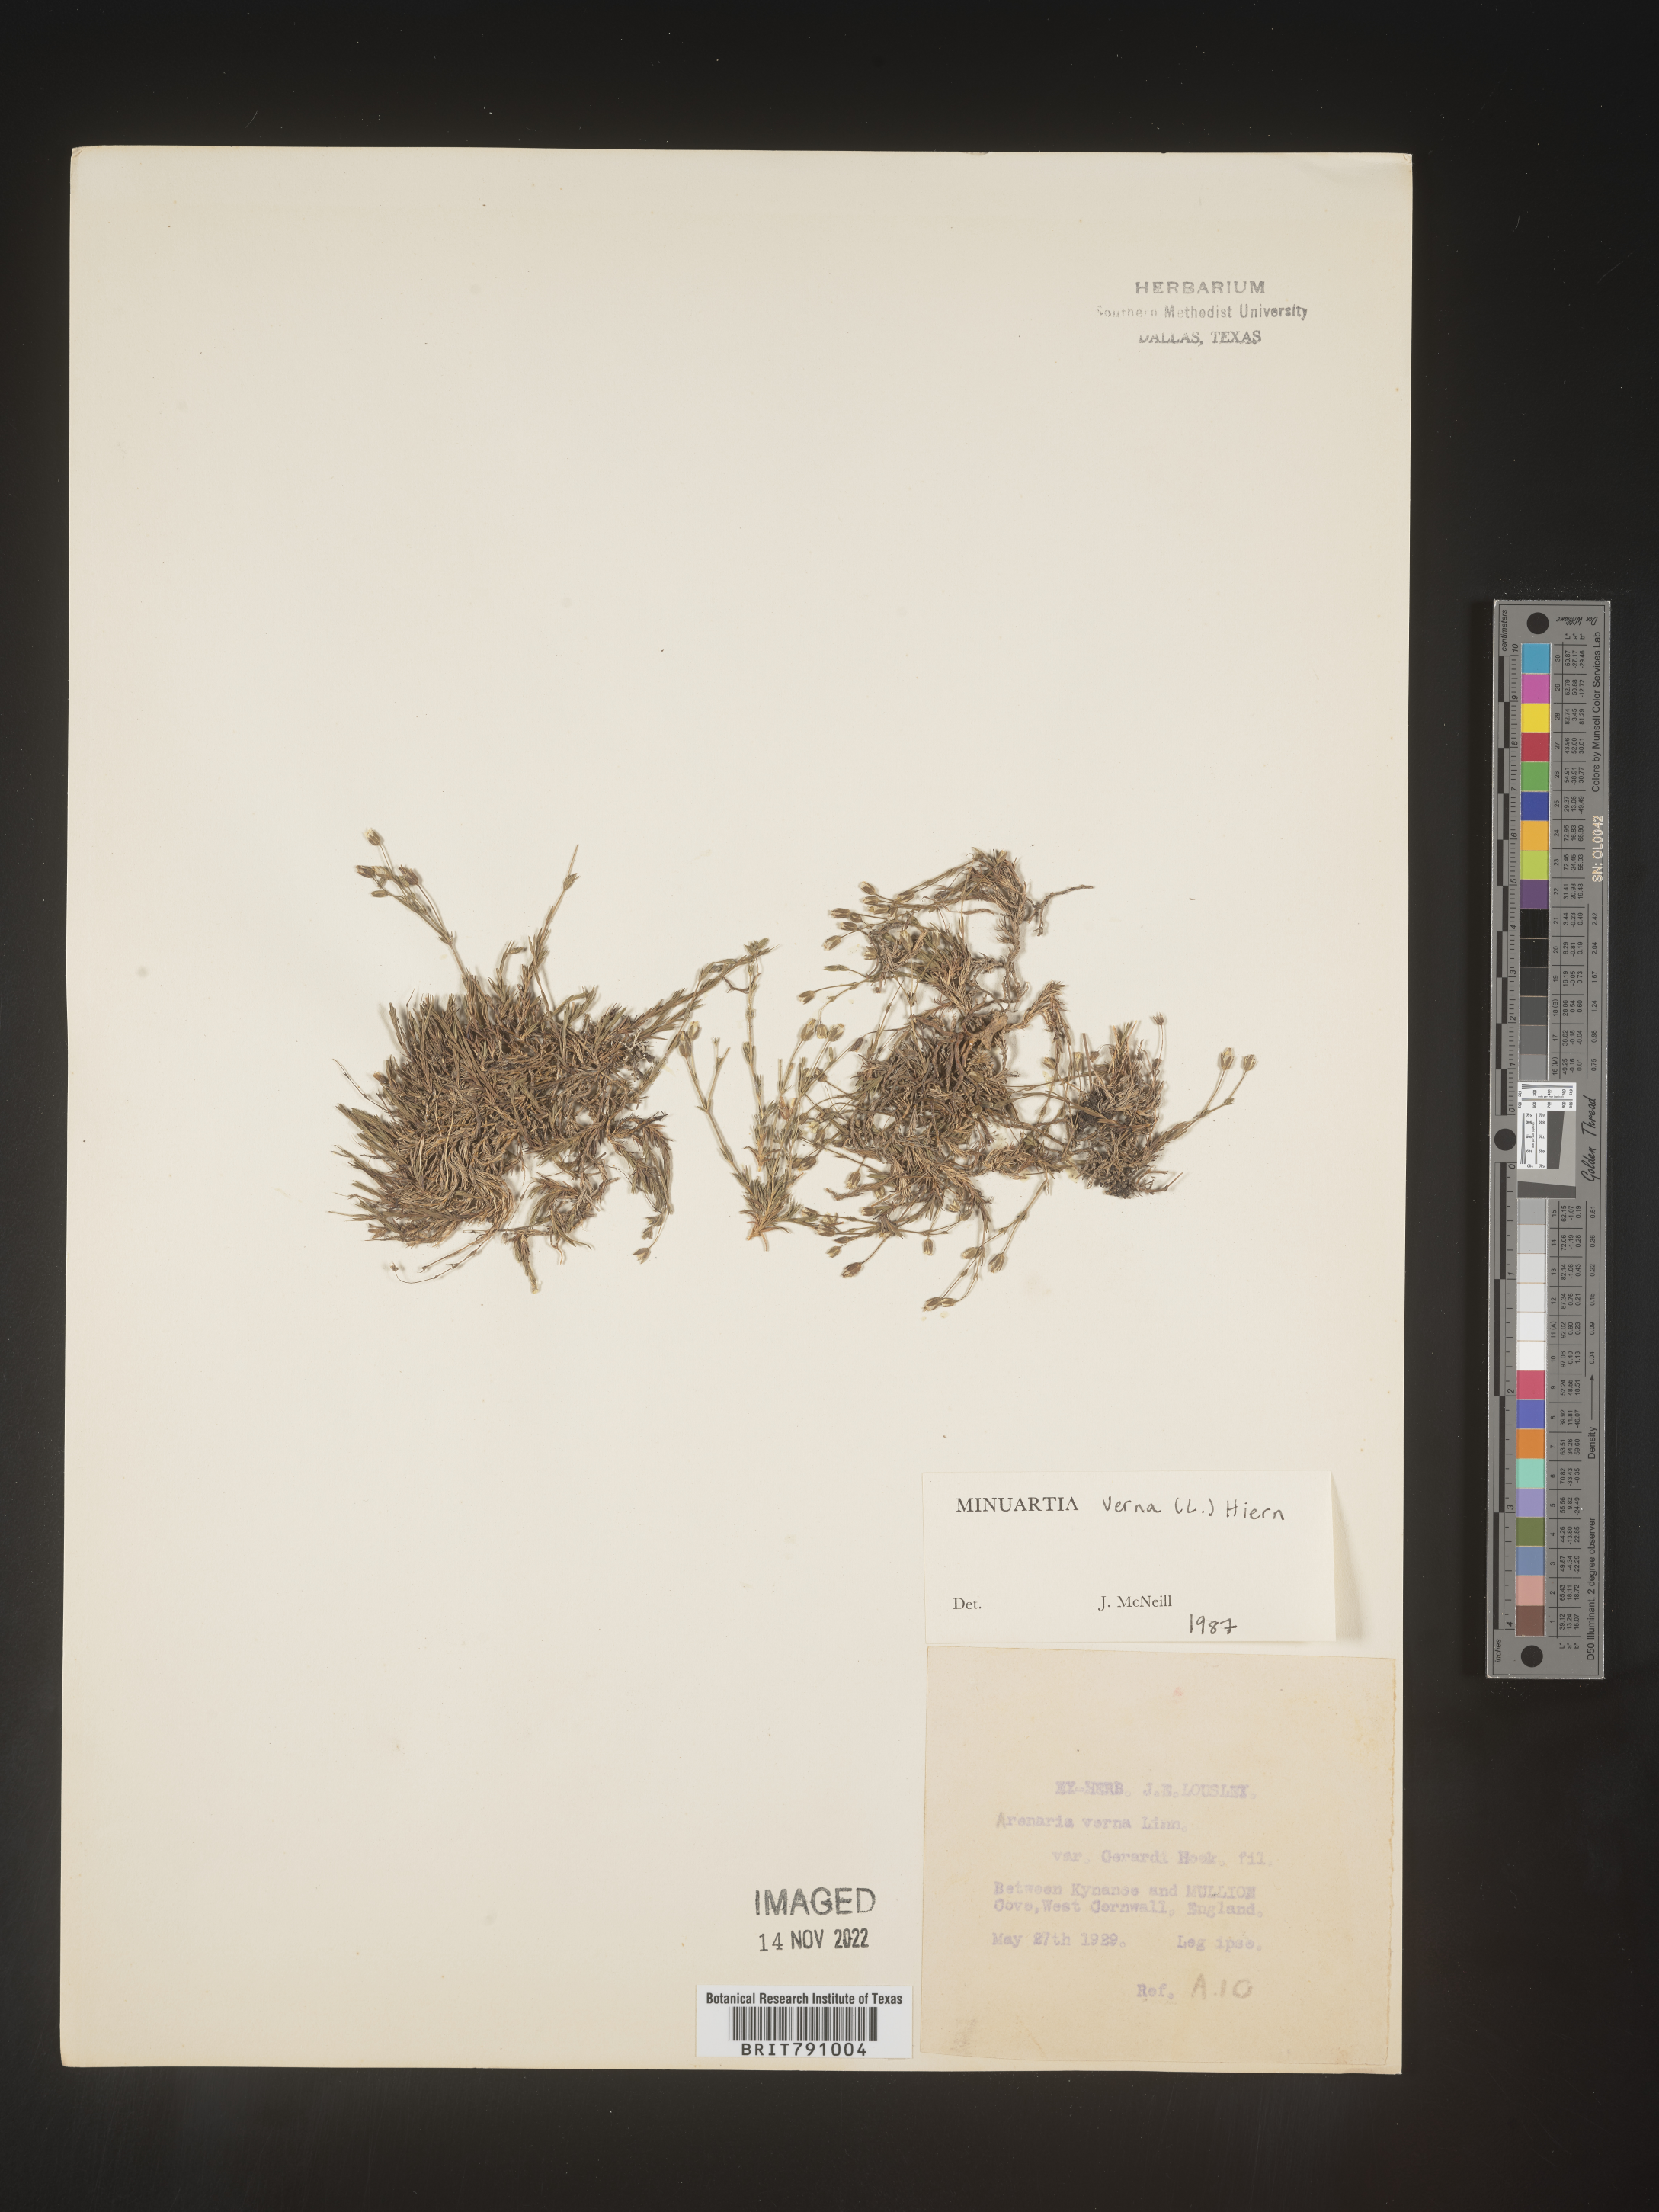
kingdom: Plantae
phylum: Tracheophyta
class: Magnoliopsida
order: Caryophyllales
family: Caryophyllaceae
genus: Minuartia
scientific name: Minuartia
